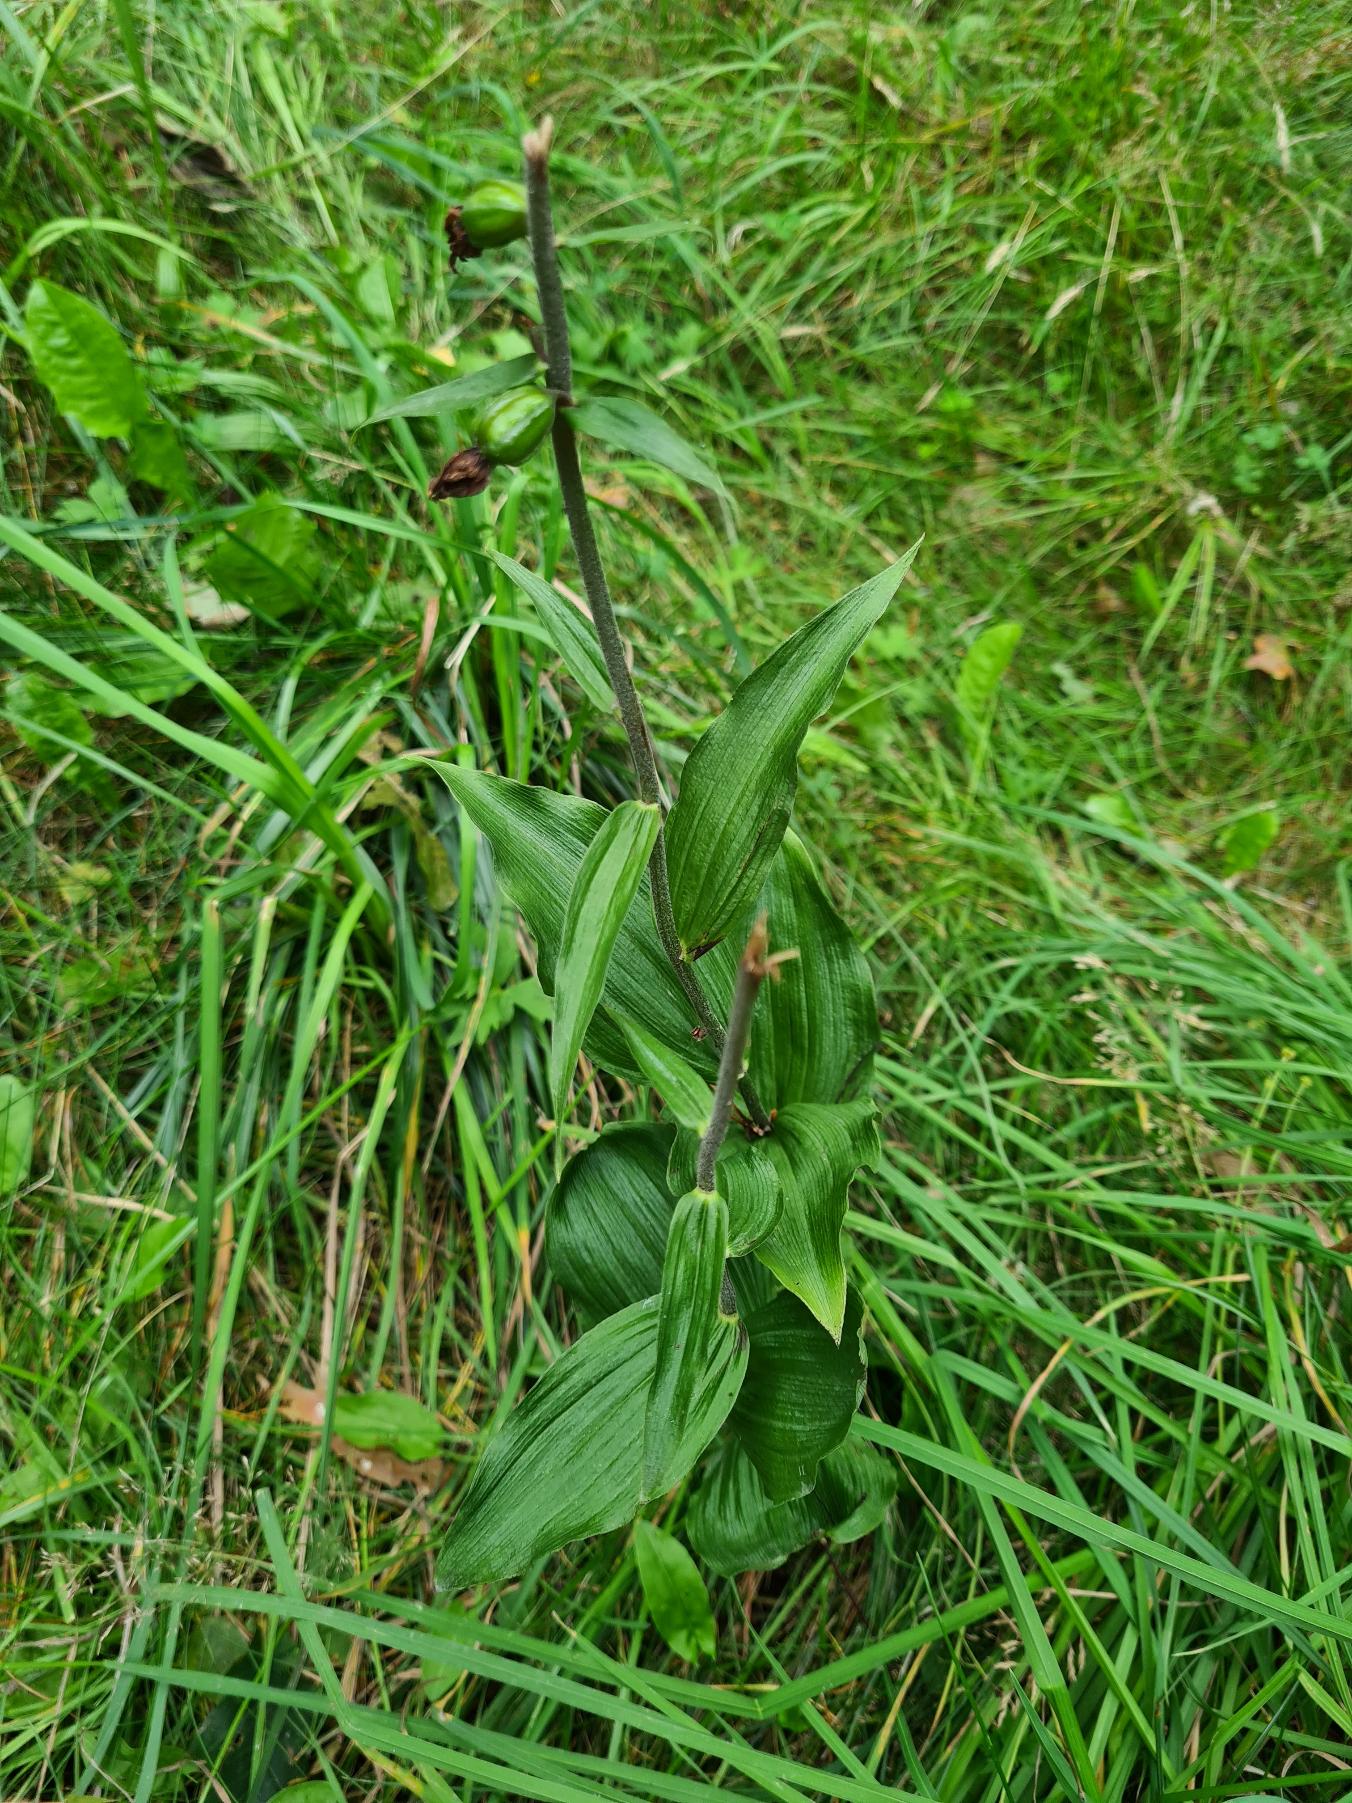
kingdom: Plantae
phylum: Tracheophyta
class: Liliopsida
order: Asparagales
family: Orchidaceae
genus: Epipactis
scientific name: Epipactis helleborine
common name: Skov-hullæbe
